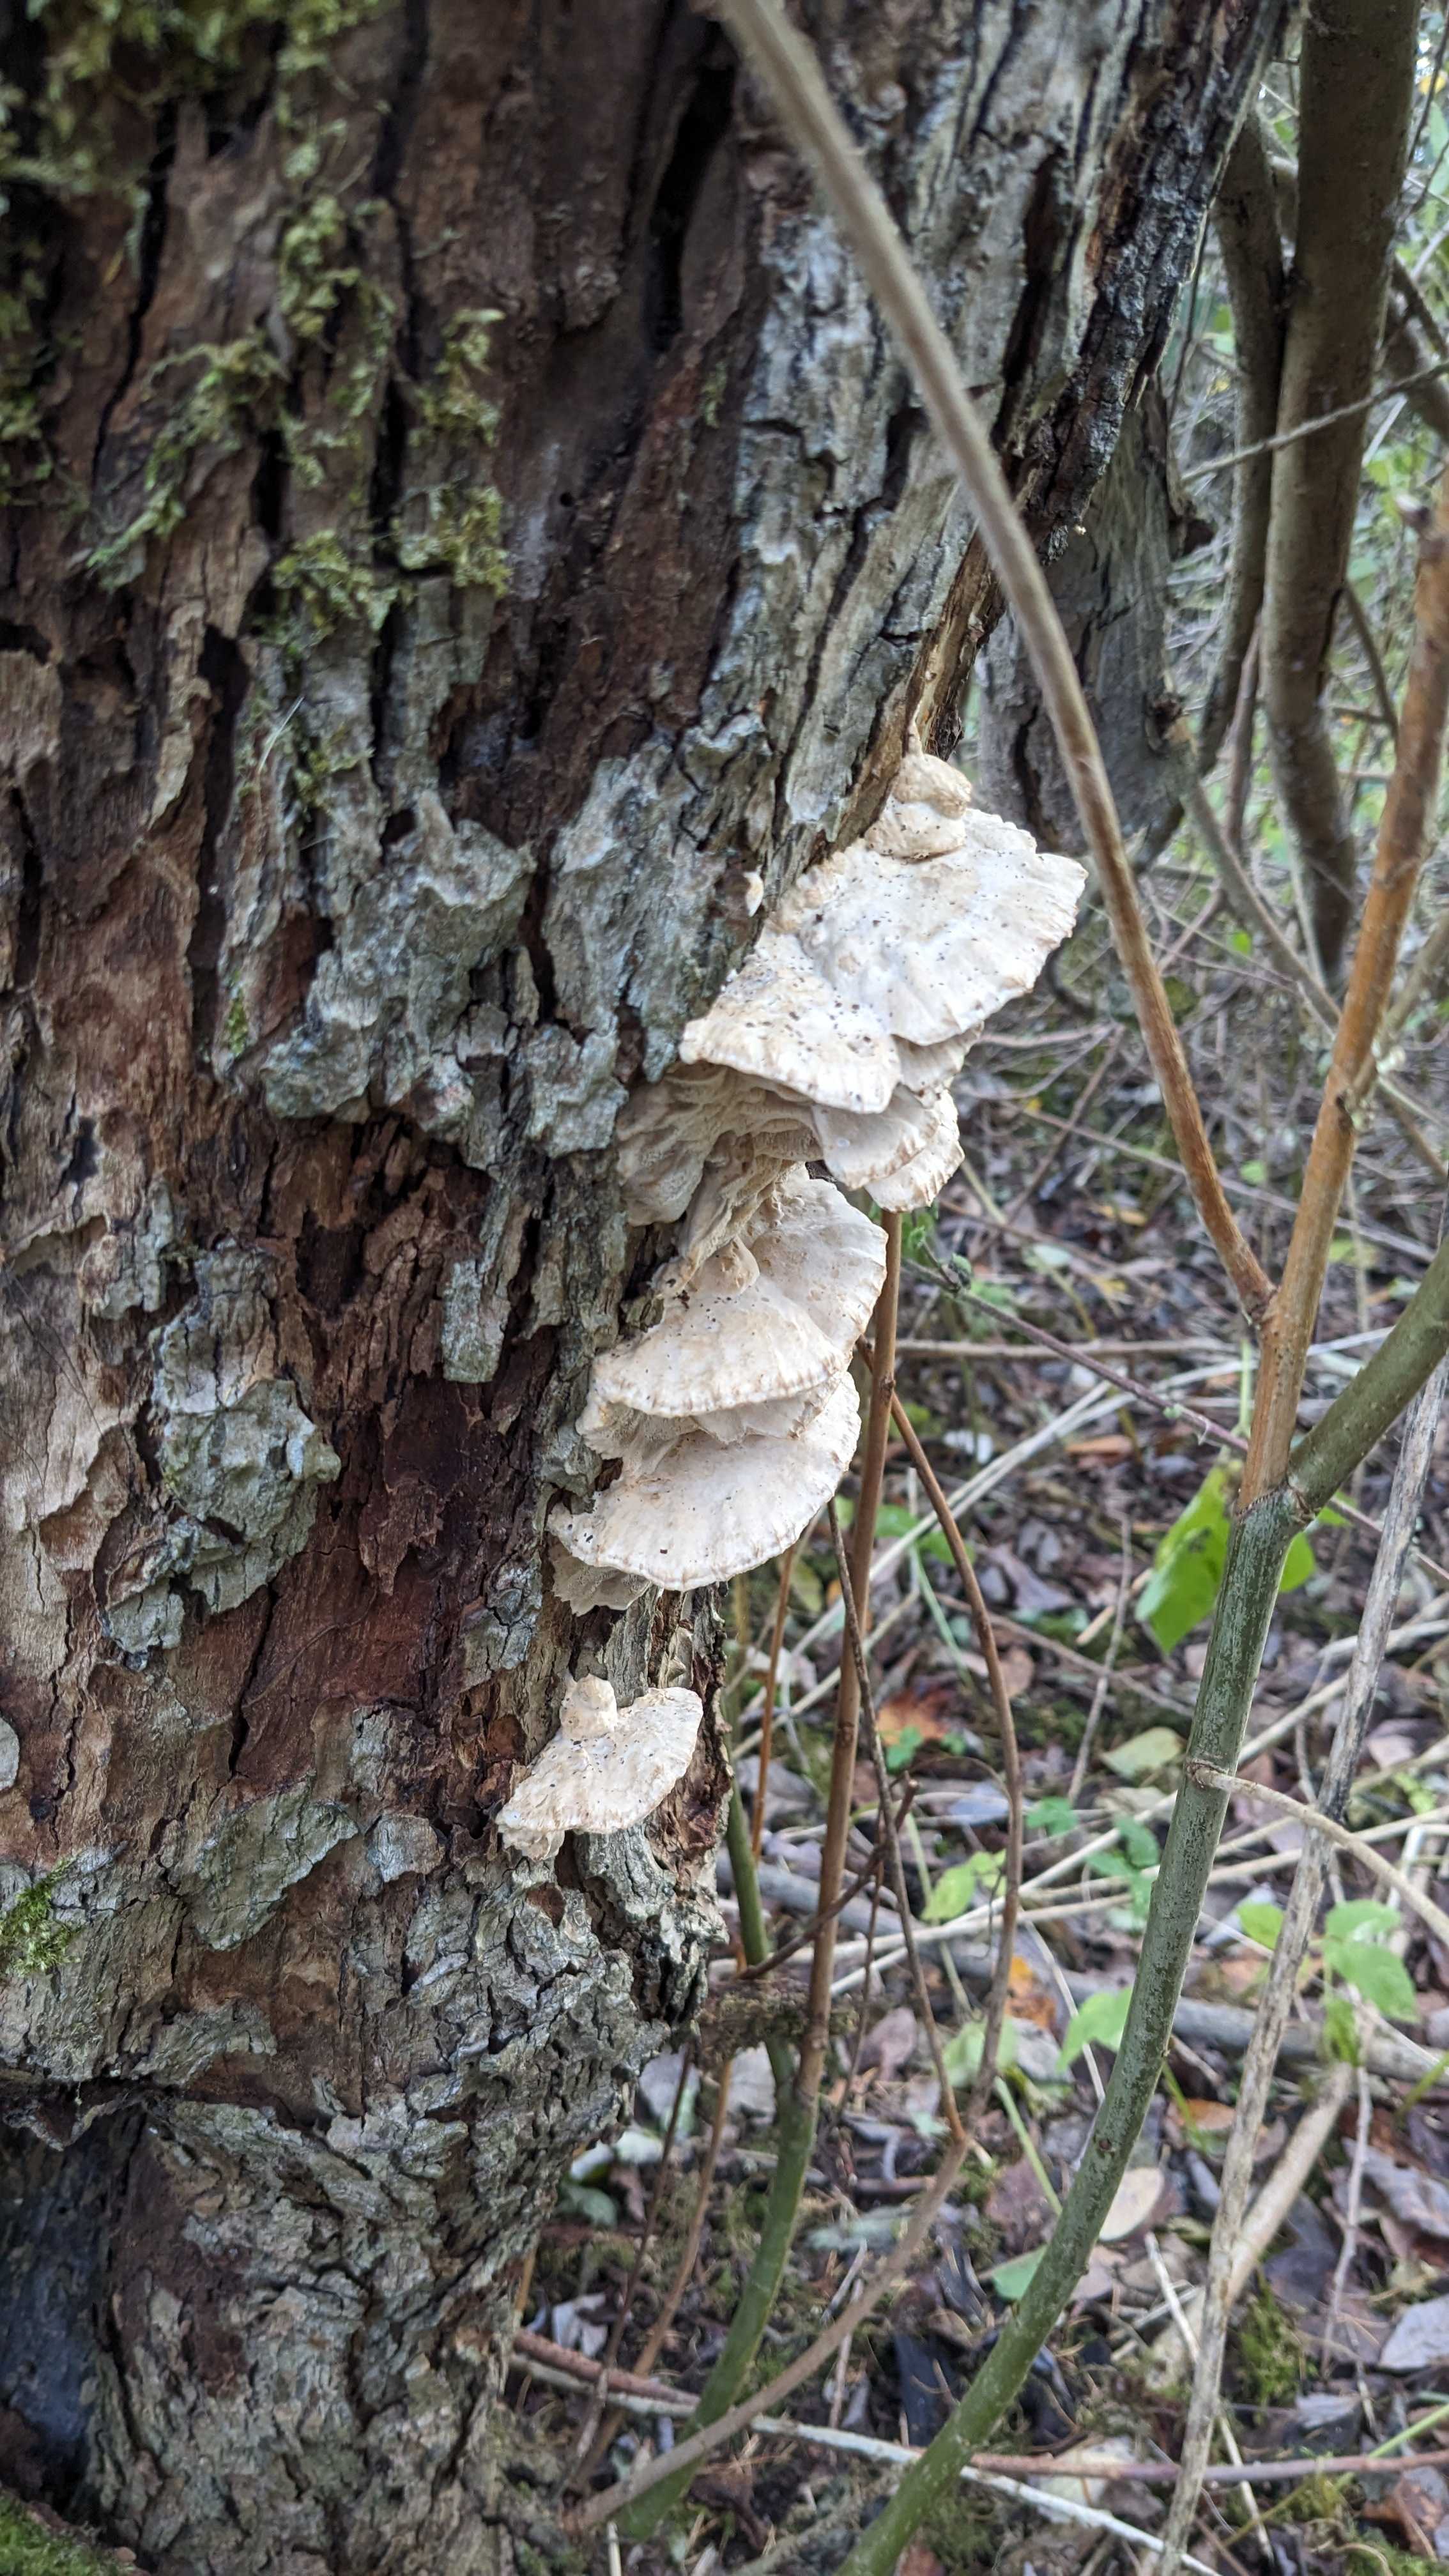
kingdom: Fungi
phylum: Basidiomycota
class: Agaricomycetes
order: Polyporales
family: Phanerochaetaceae
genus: Bjerkandera
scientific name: Bjerkandera adusta
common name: sveden sodporesvamp
